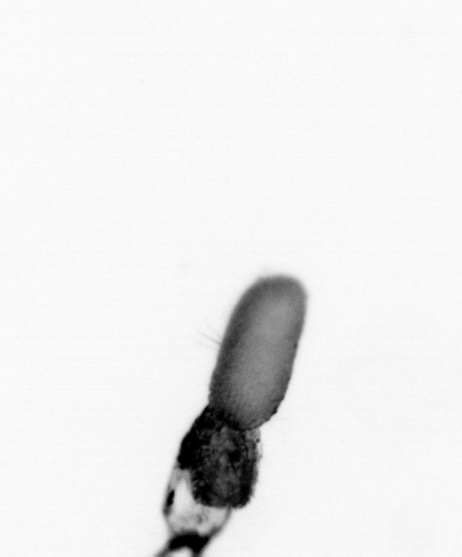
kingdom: Animalia
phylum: Arthropoda
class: Copepoda
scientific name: Copepoda
